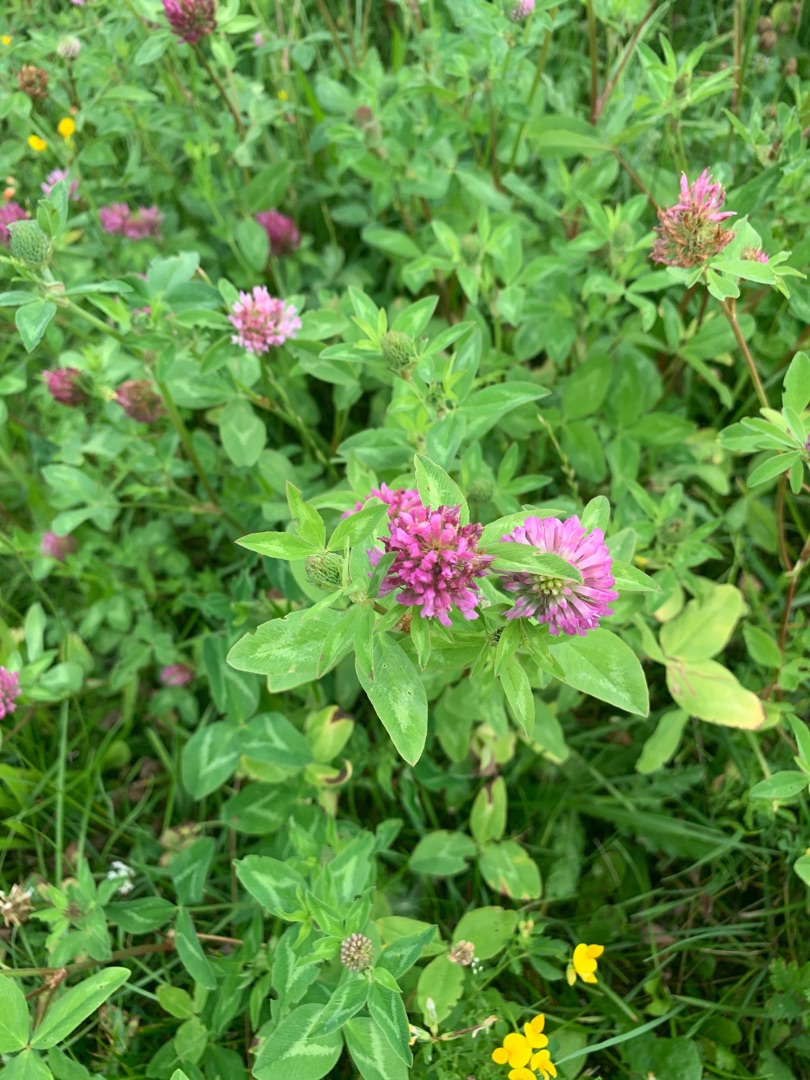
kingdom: Plantae
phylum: Tracheophyta
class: Magnoliopsida
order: Fabales
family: Fabaceae
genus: Trifolium
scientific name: Trifolium pratense
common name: Rød-kløver
